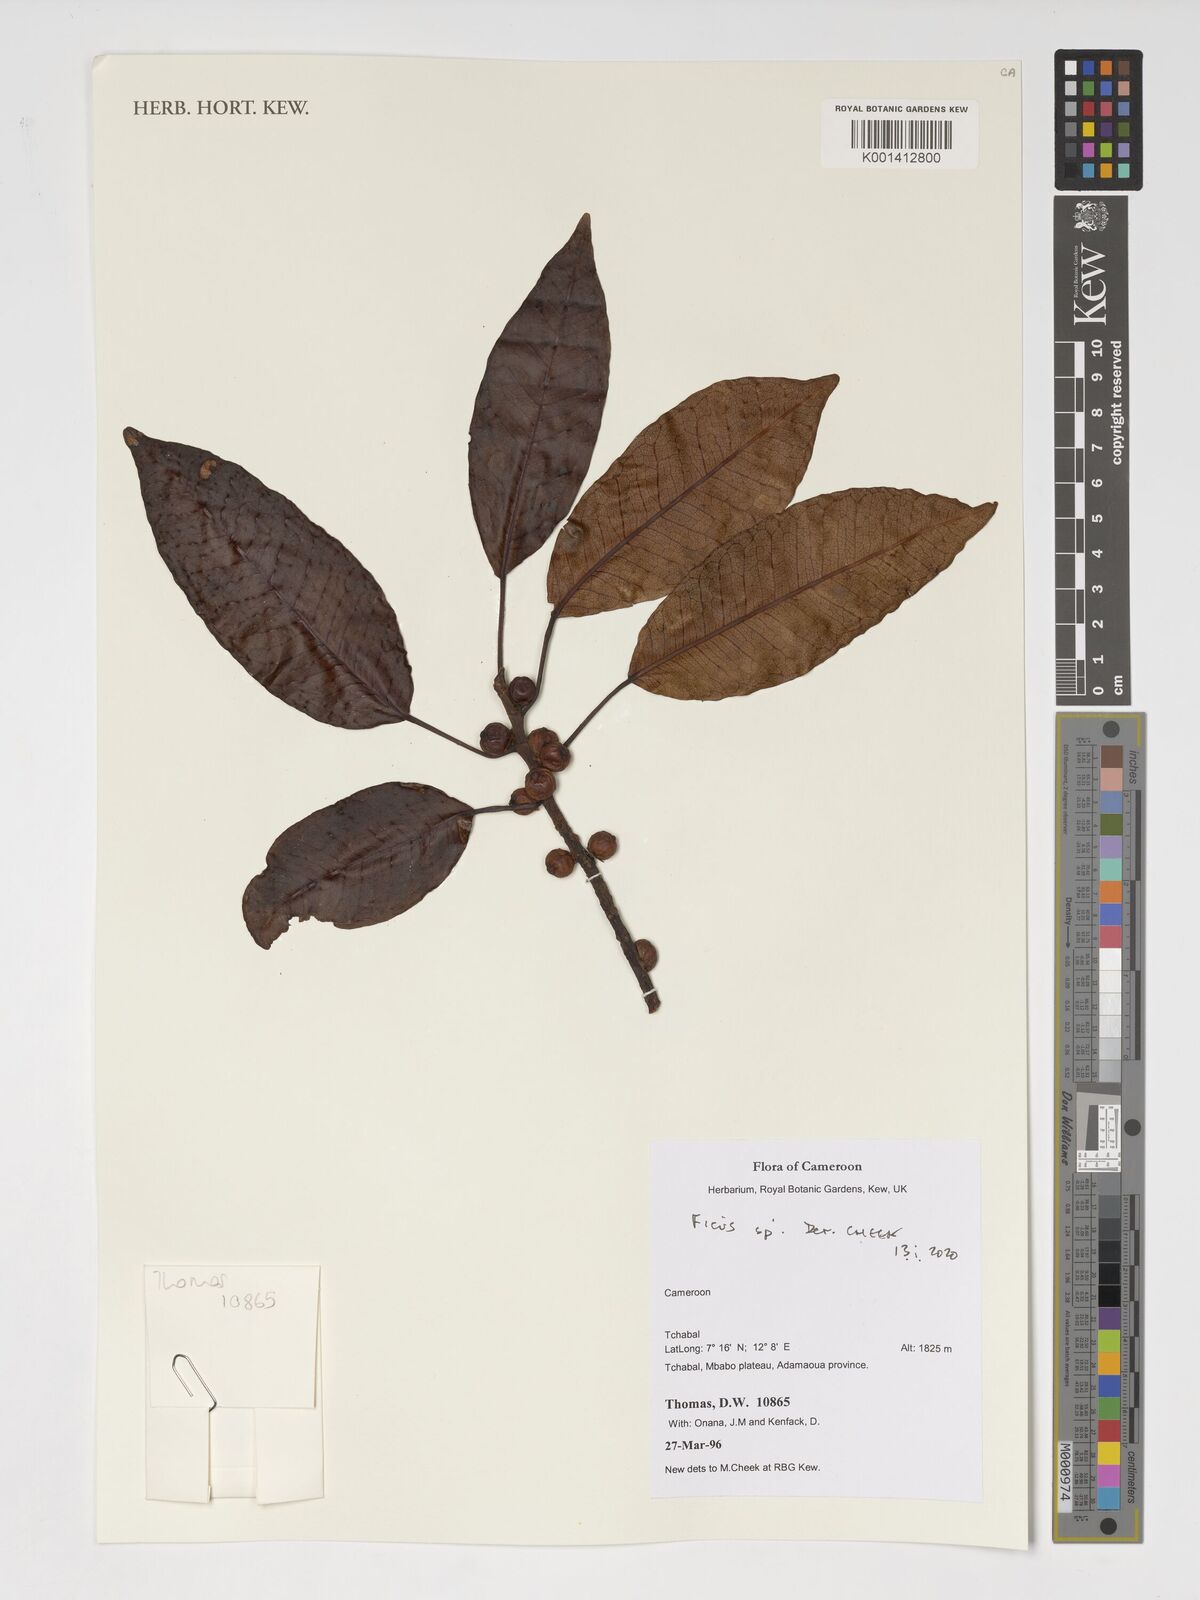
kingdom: Plantae
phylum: Tracheophyta
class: Magnoliopsida
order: Rosales
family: Moraceae
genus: Ficus
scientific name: Ficus
